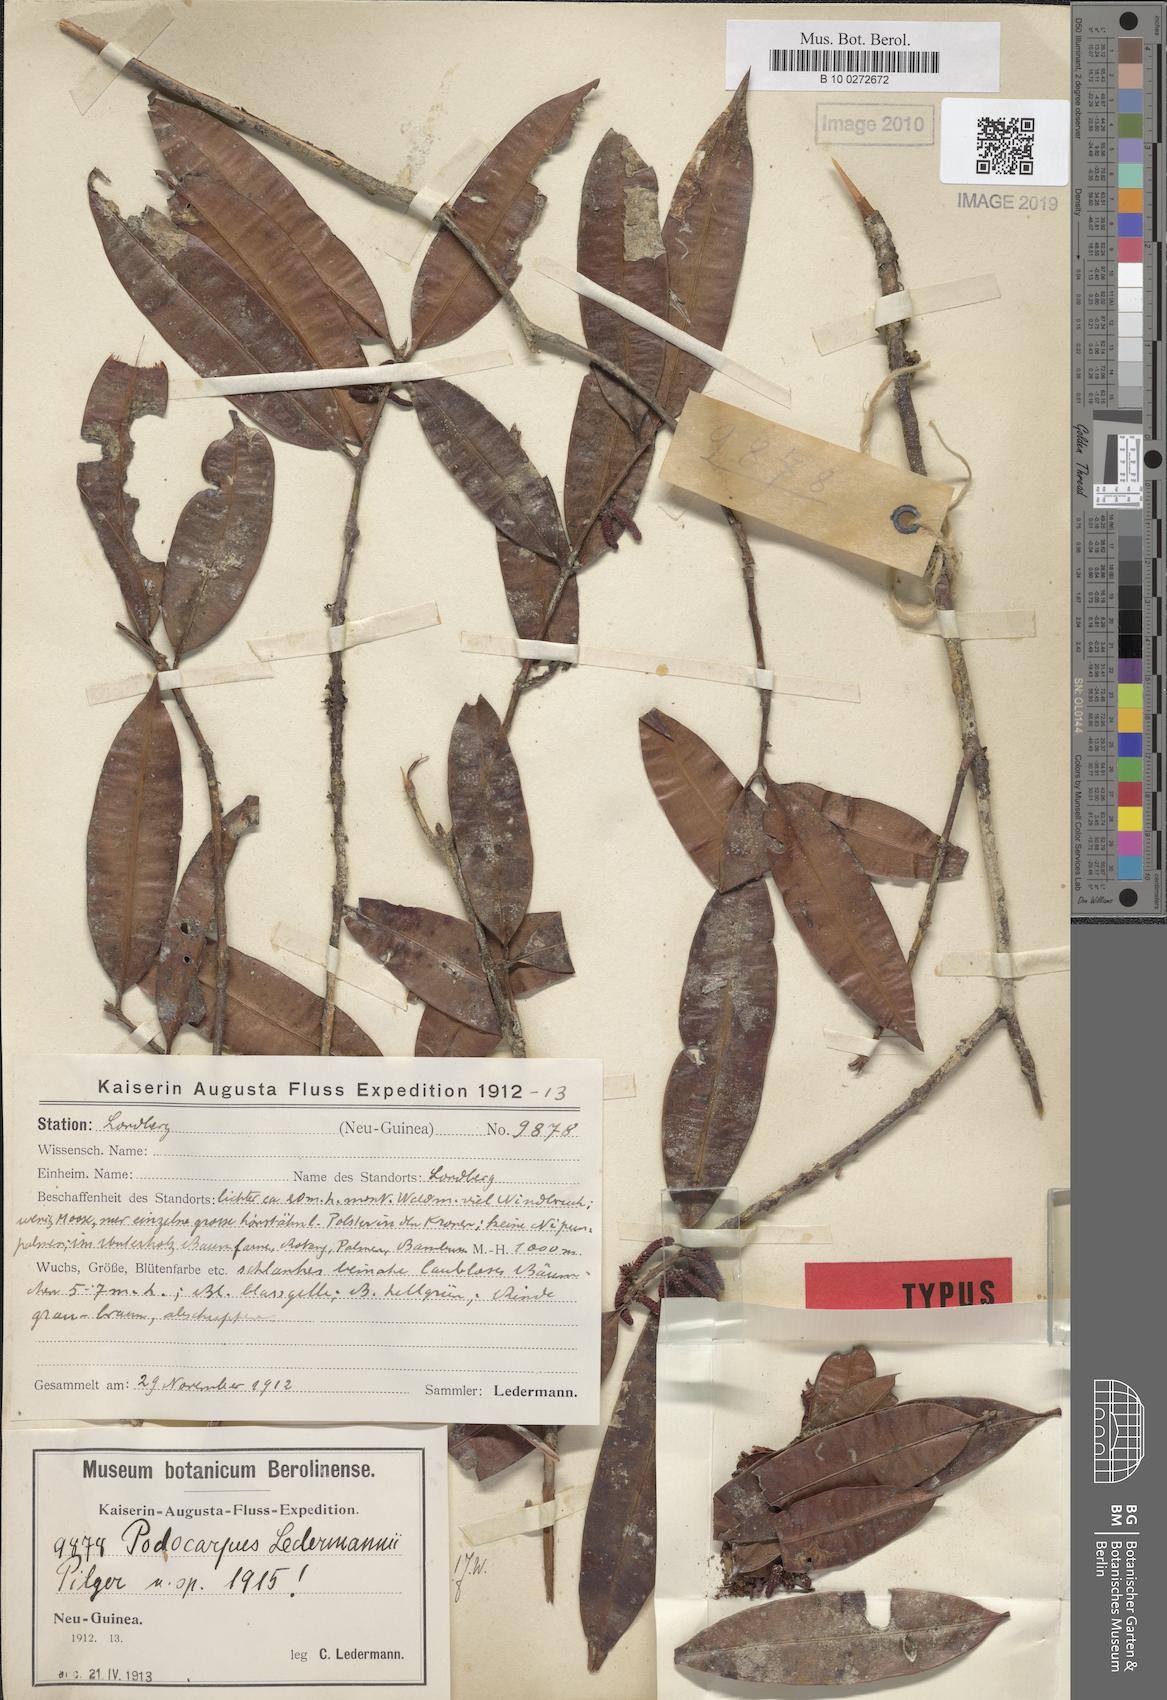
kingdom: Plantae
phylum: Tracheophyta
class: Pinopsida
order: Pinales
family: Podocarpaceae
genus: Podocarpus
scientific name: Podocarpus ledermannii
